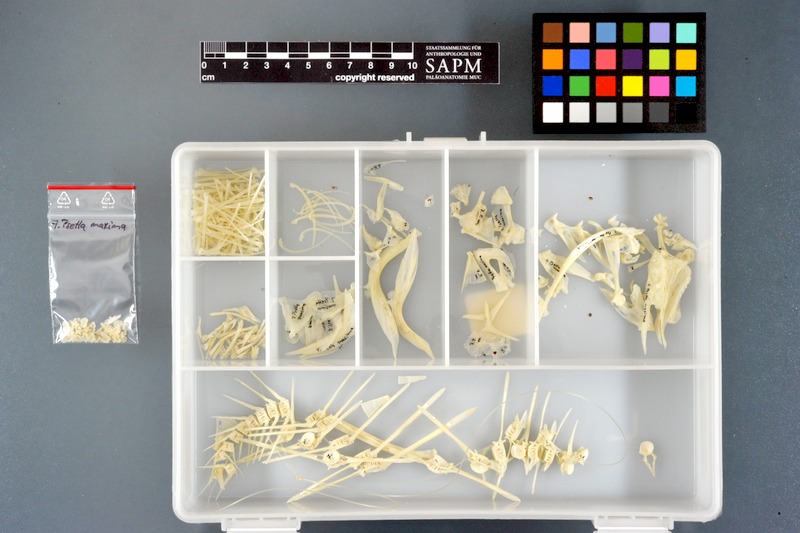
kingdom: Animalia
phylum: Chordata
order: Pleuronectiformes
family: Scophthalmidae
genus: Scophthalmus
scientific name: Scophthalmus maximus
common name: Turbot
